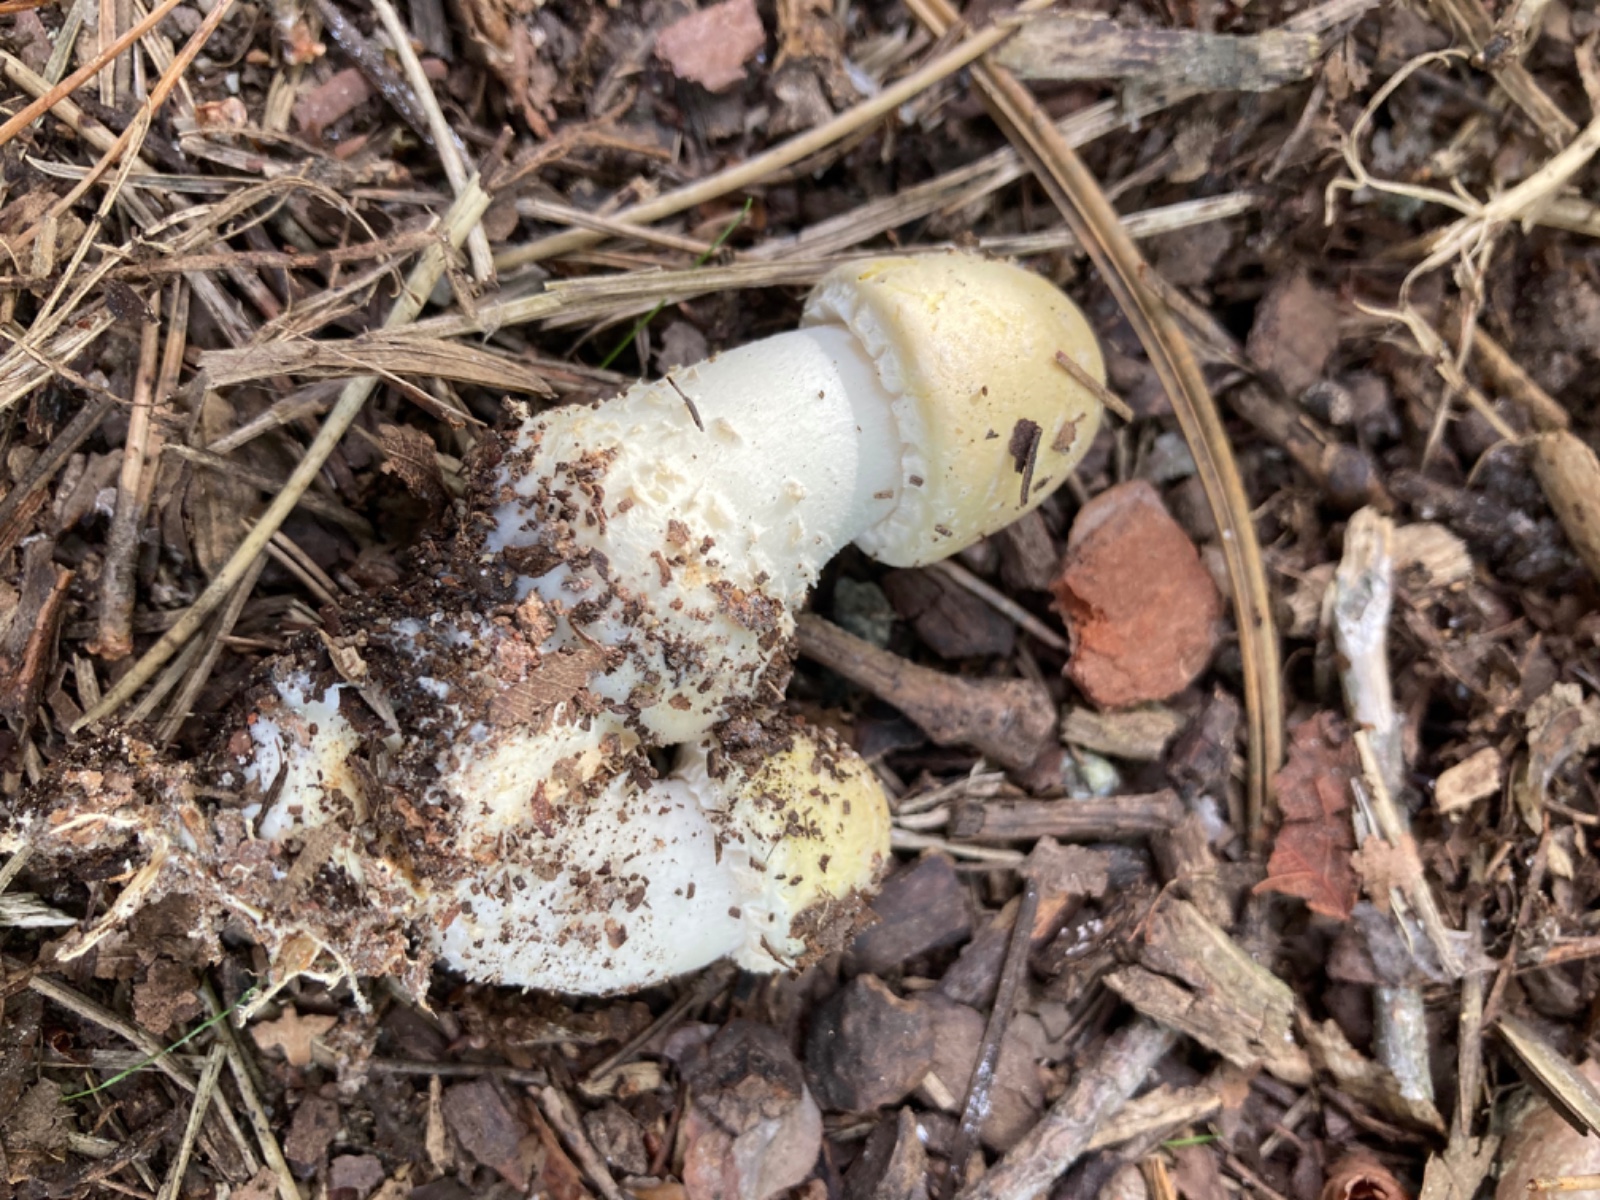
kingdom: Fungi
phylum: Basidiomycota
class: Agaricomycetes
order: Agaricales
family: Agaricaceae
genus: Agaricus
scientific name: Agaricus
